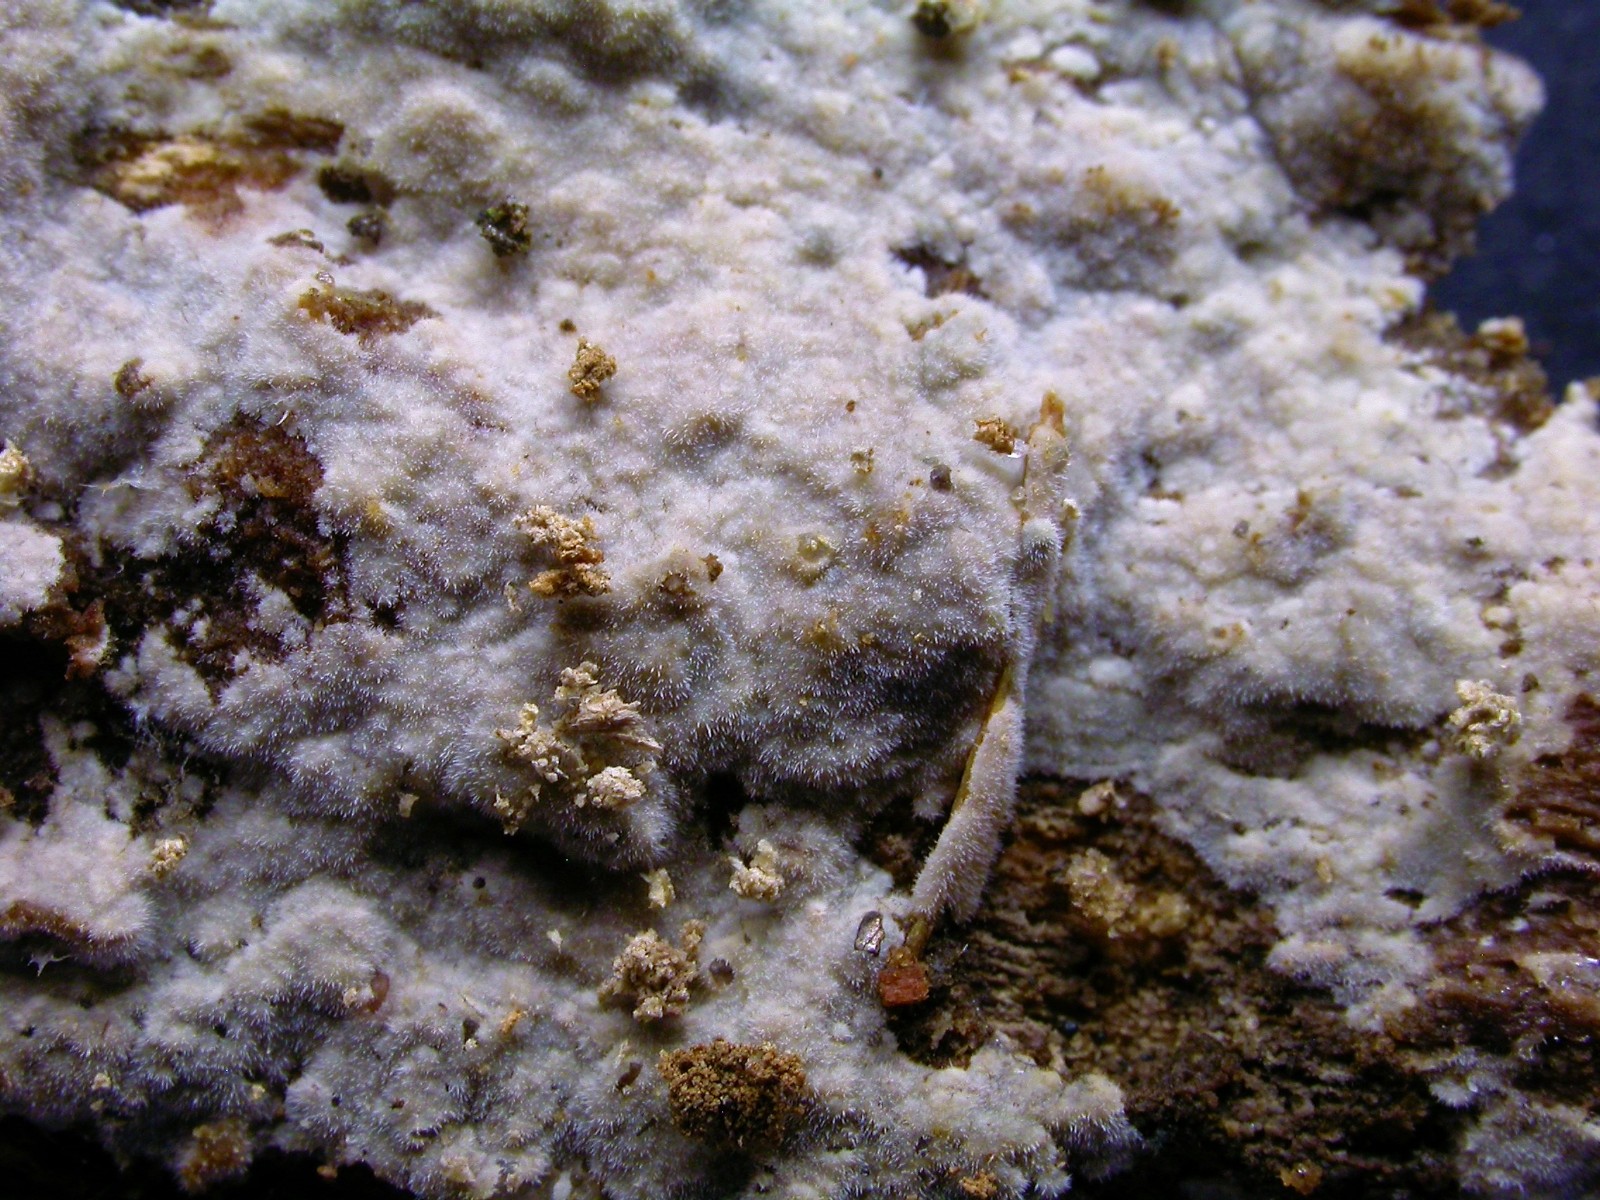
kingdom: Fungi
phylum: Basidiomycota
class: Agaricomycetes
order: Polyporales
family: Phanerochaetaceae
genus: Phanerochaete
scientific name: Phanerochaete velutina
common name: dunet randtråd
